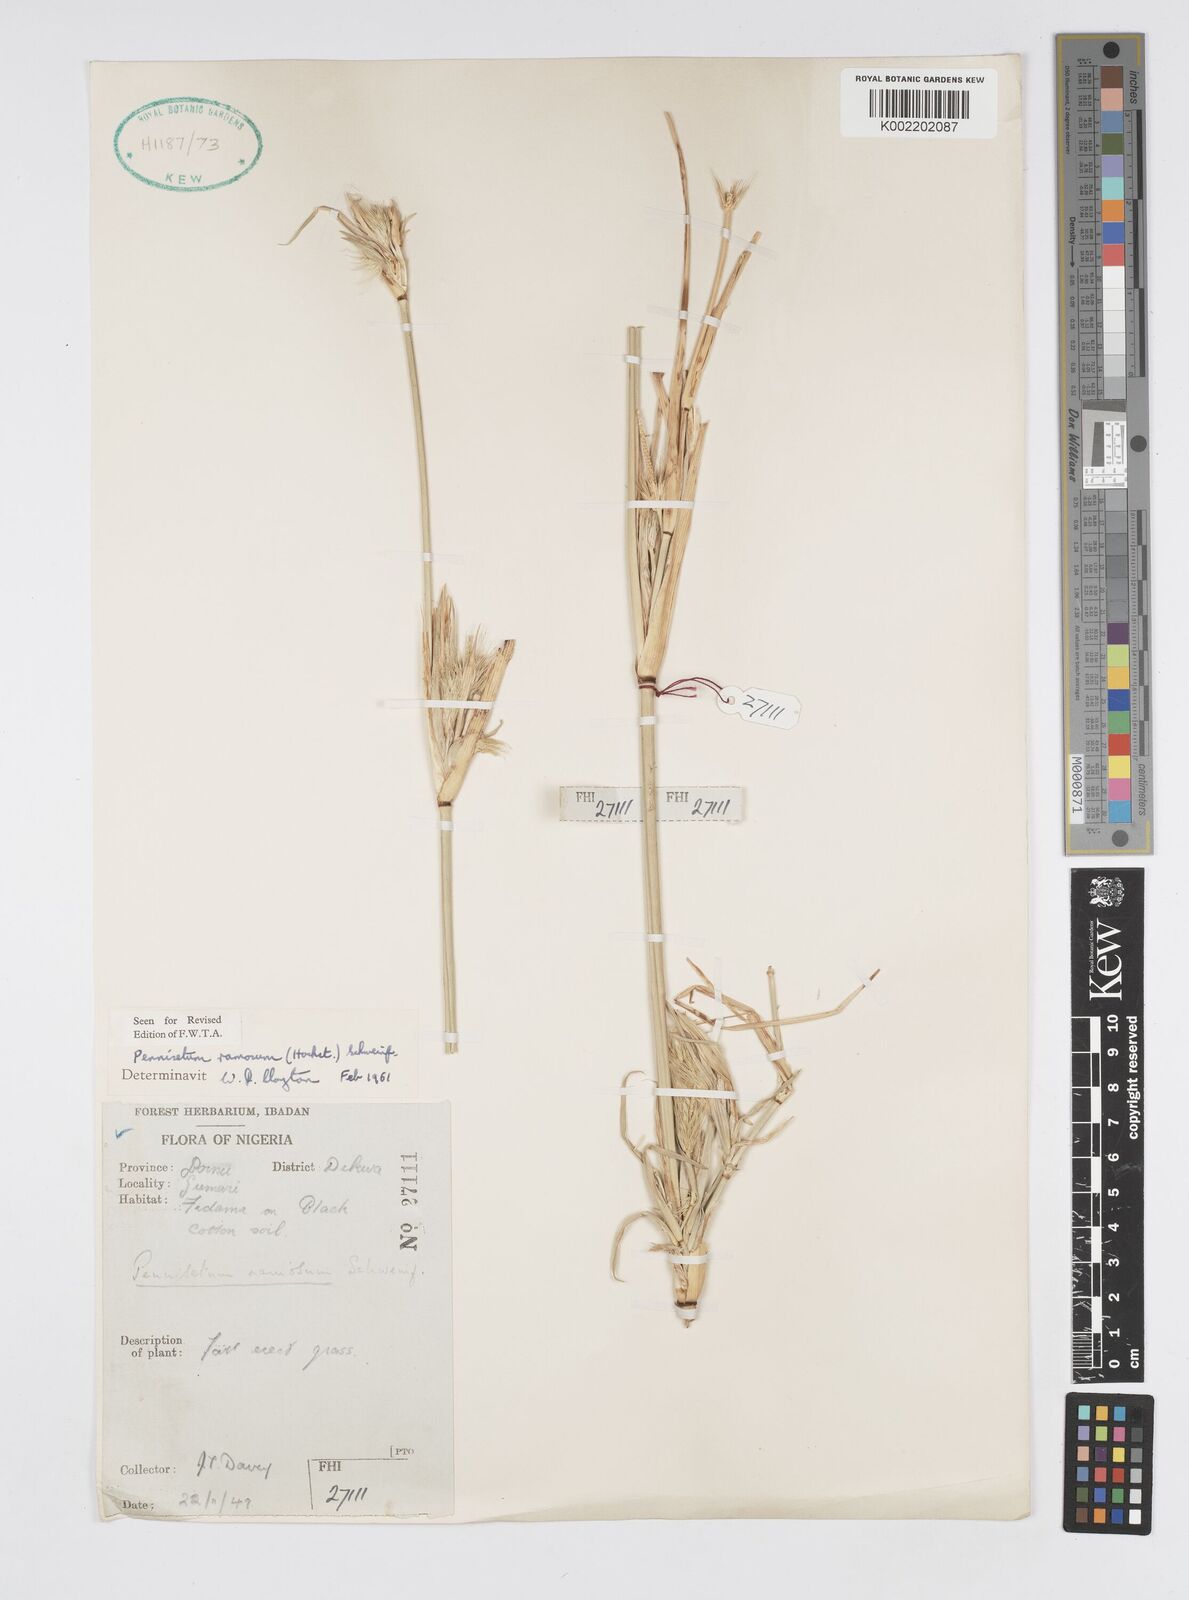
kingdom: Plantae
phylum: Tracheophyta
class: Liliopsida
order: Poales
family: Poaceae
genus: Cenchrus
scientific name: Cenchrus ramosus
